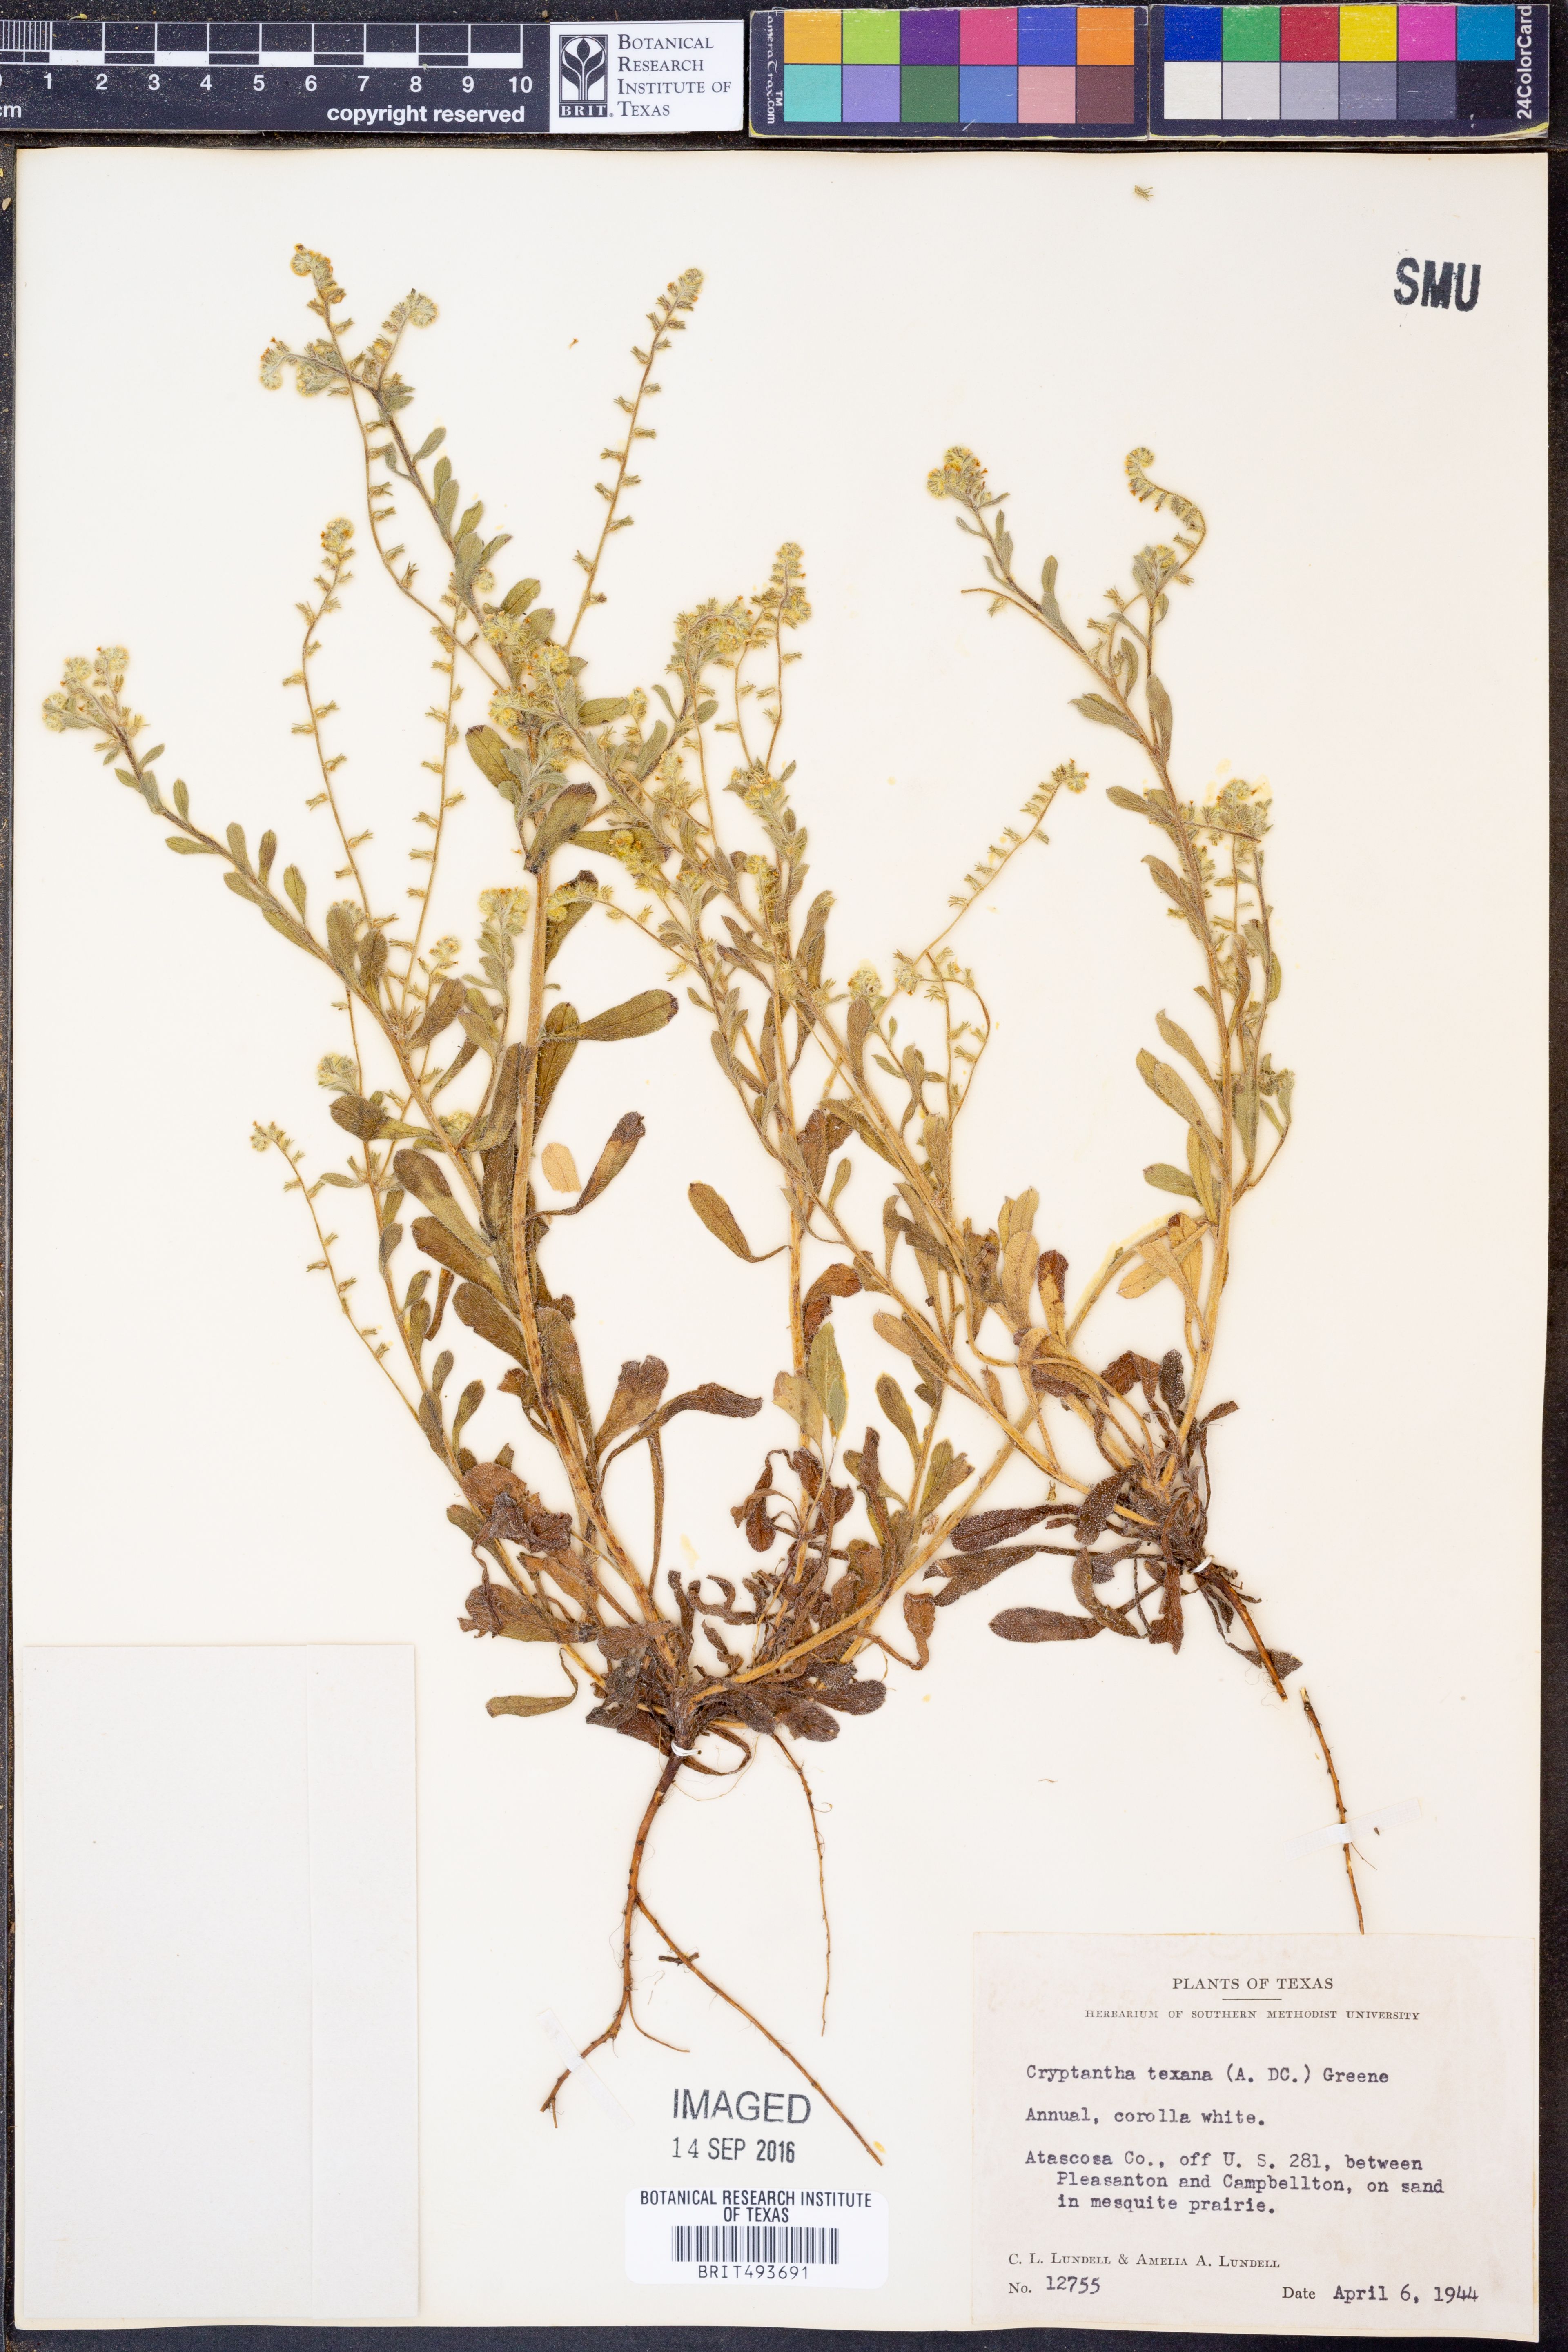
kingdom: Plantae
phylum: Tracheophyta
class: Magnoliopsida
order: Boraginales
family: Boraginaceae
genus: Cryptantha
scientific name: Cryptantha texana
